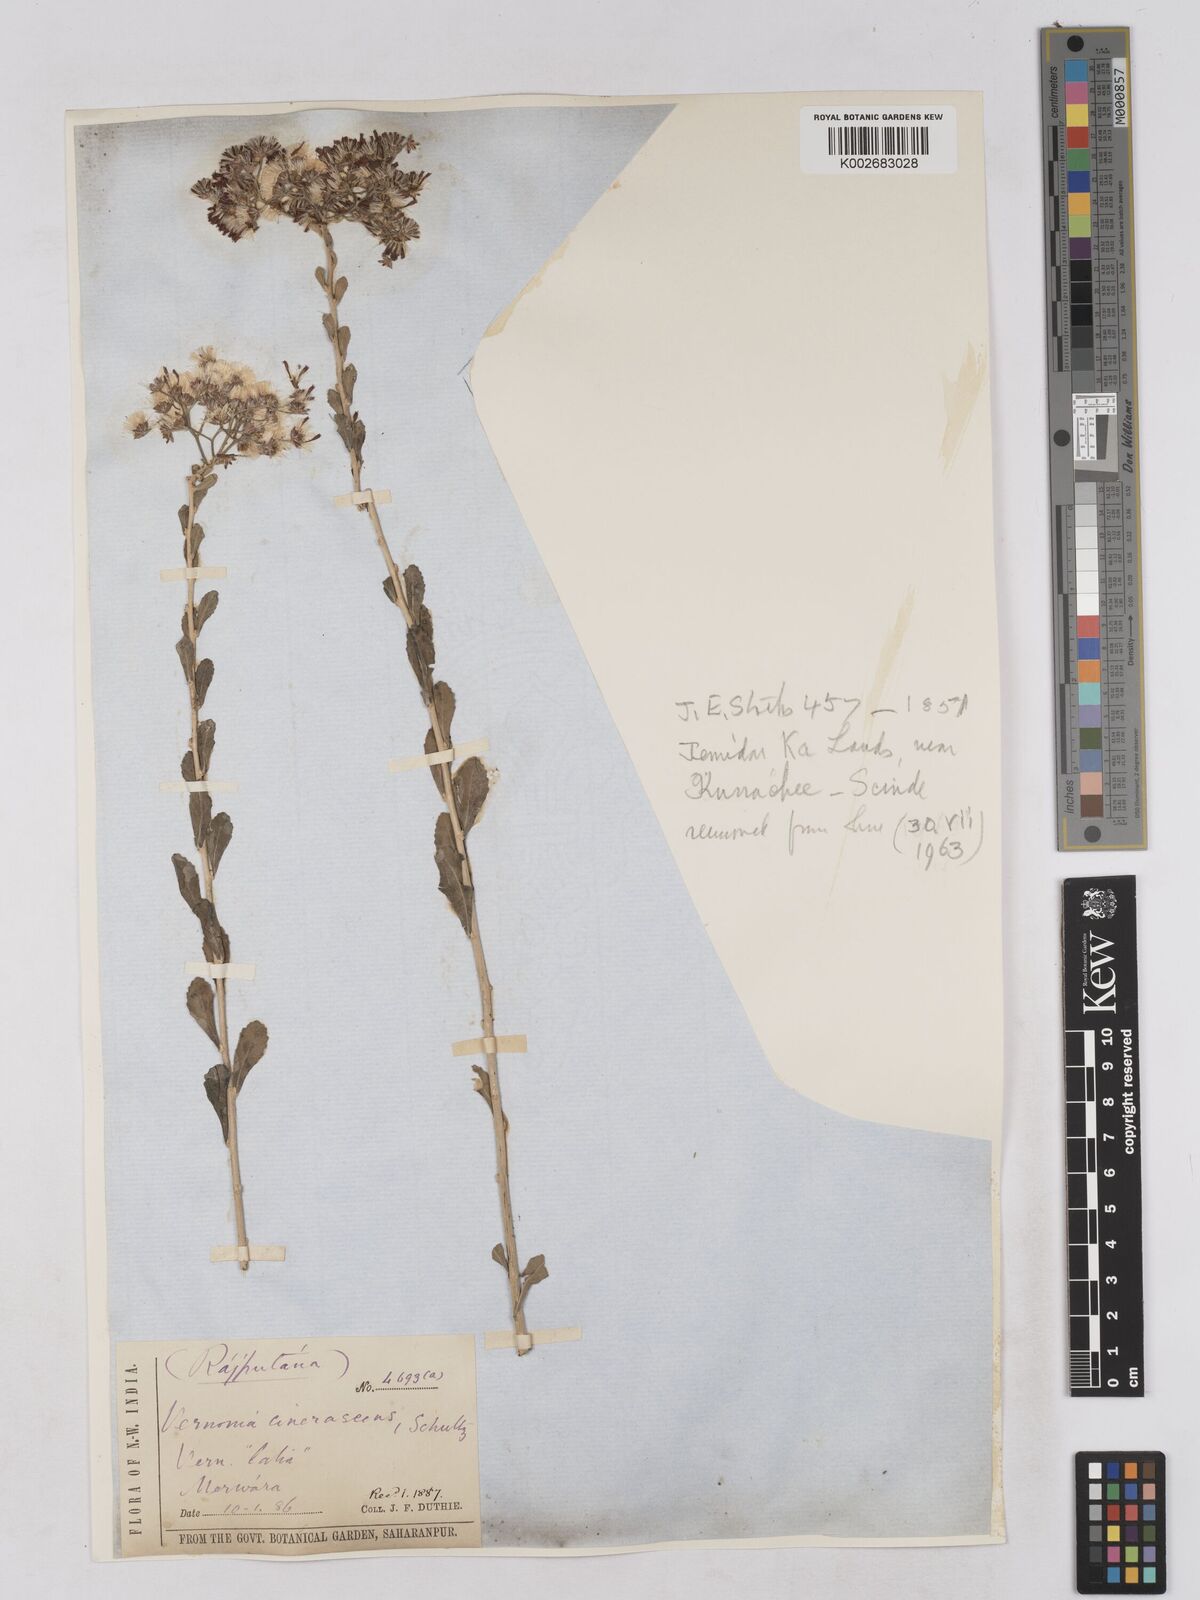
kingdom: Plantae
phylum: Tracheophyta
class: Magnoliopsida
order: Asterales
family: Asteraceae
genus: Orbivestus
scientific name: Orbivestus cinerascens
